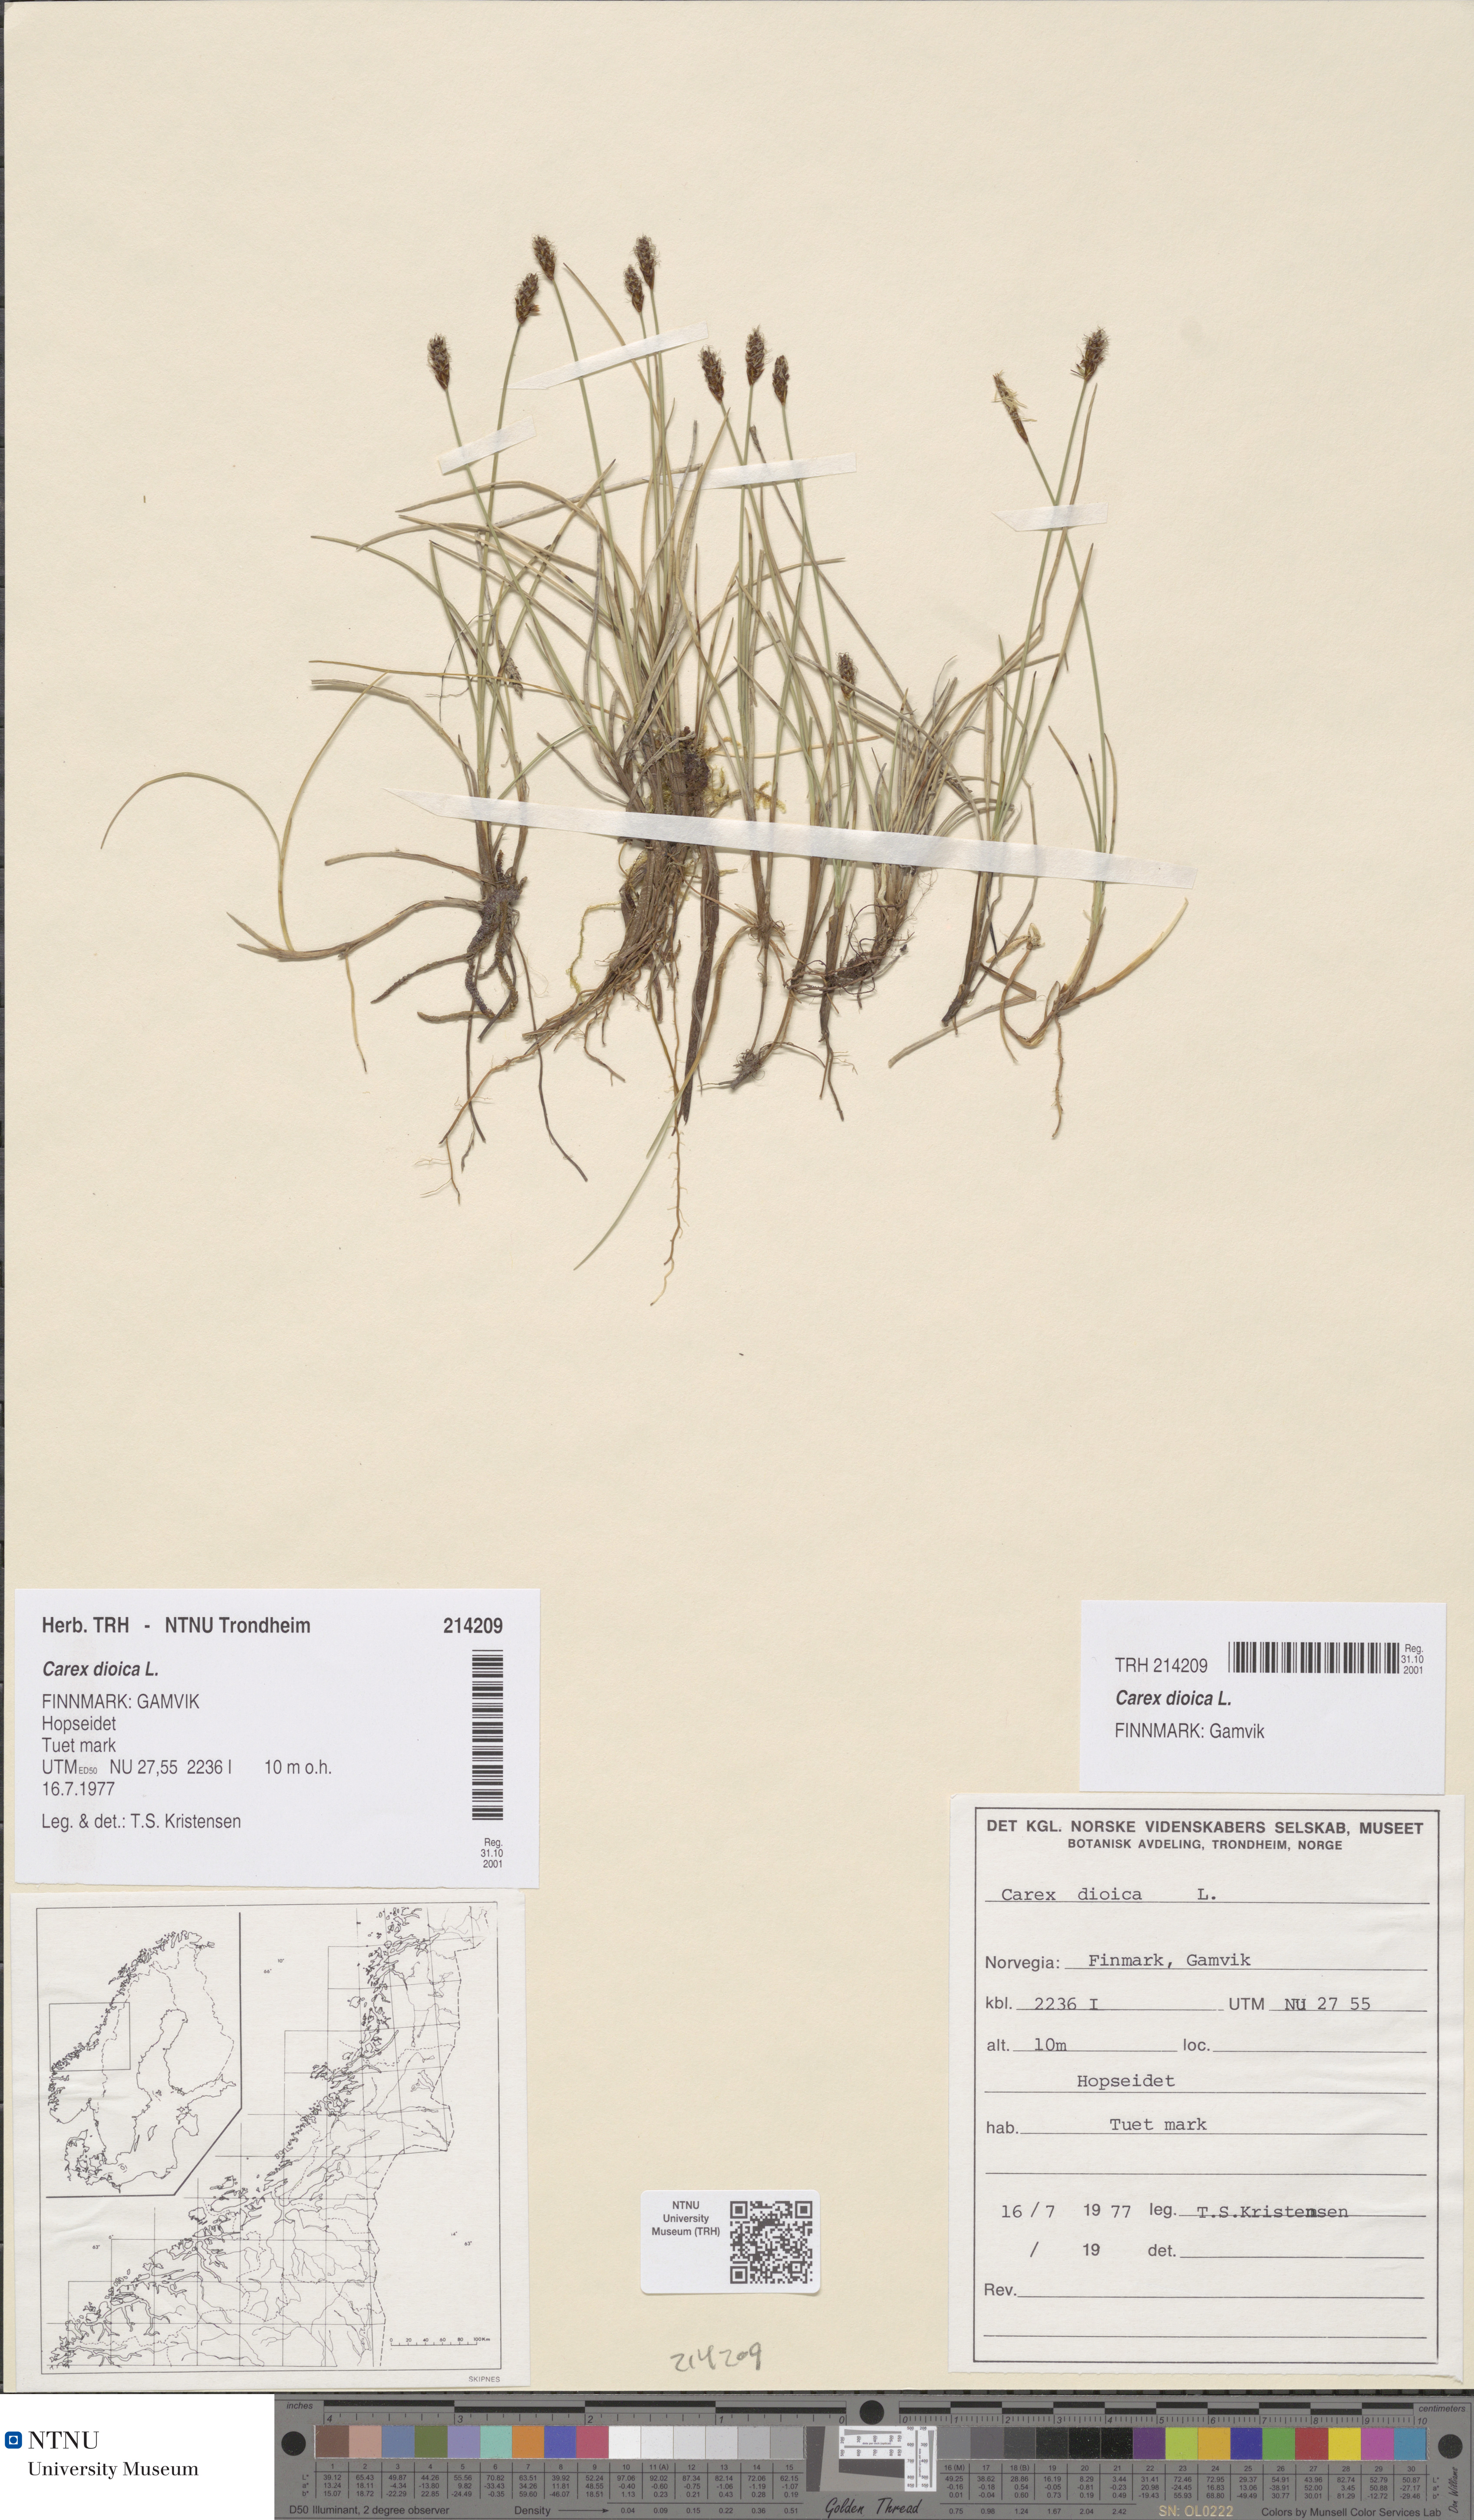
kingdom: Plantae
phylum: Tracheophyta
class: Liliopsida
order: Poales
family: Cyperaceae
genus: Carex
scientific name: Carex dioica
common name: Dioecious sedge
